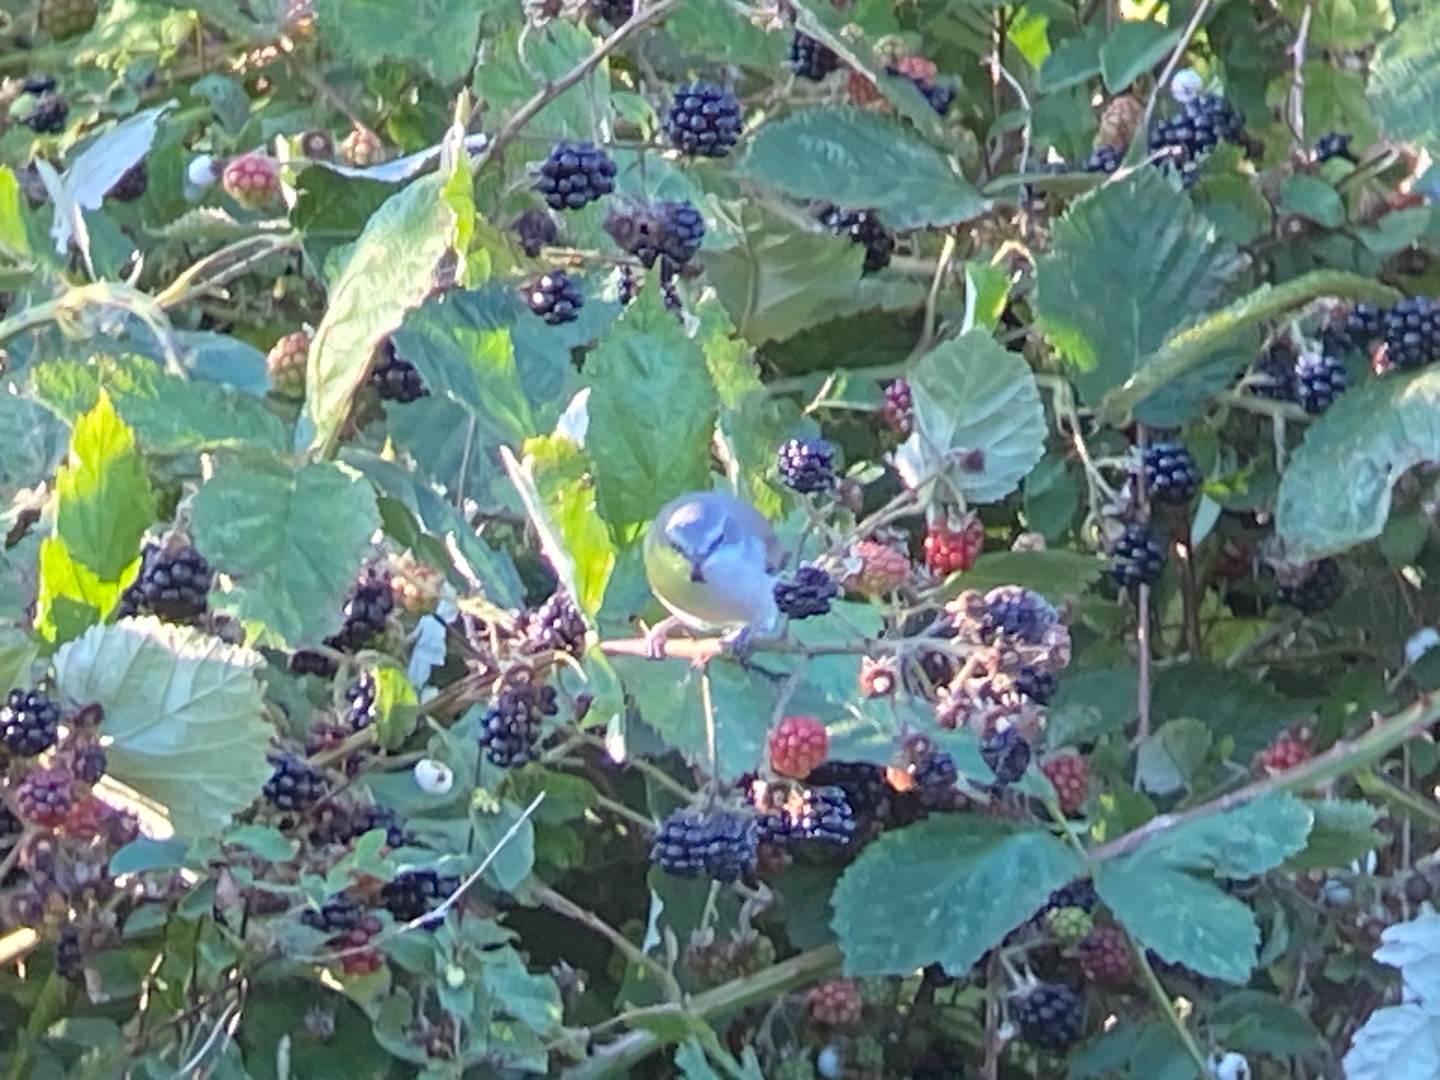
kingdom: Animalia
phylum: Chordata
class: Aves
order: Passeriformes
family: Sylviidae
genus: Sylvia
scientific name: Sylvia curruca
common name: Gærdesanger
